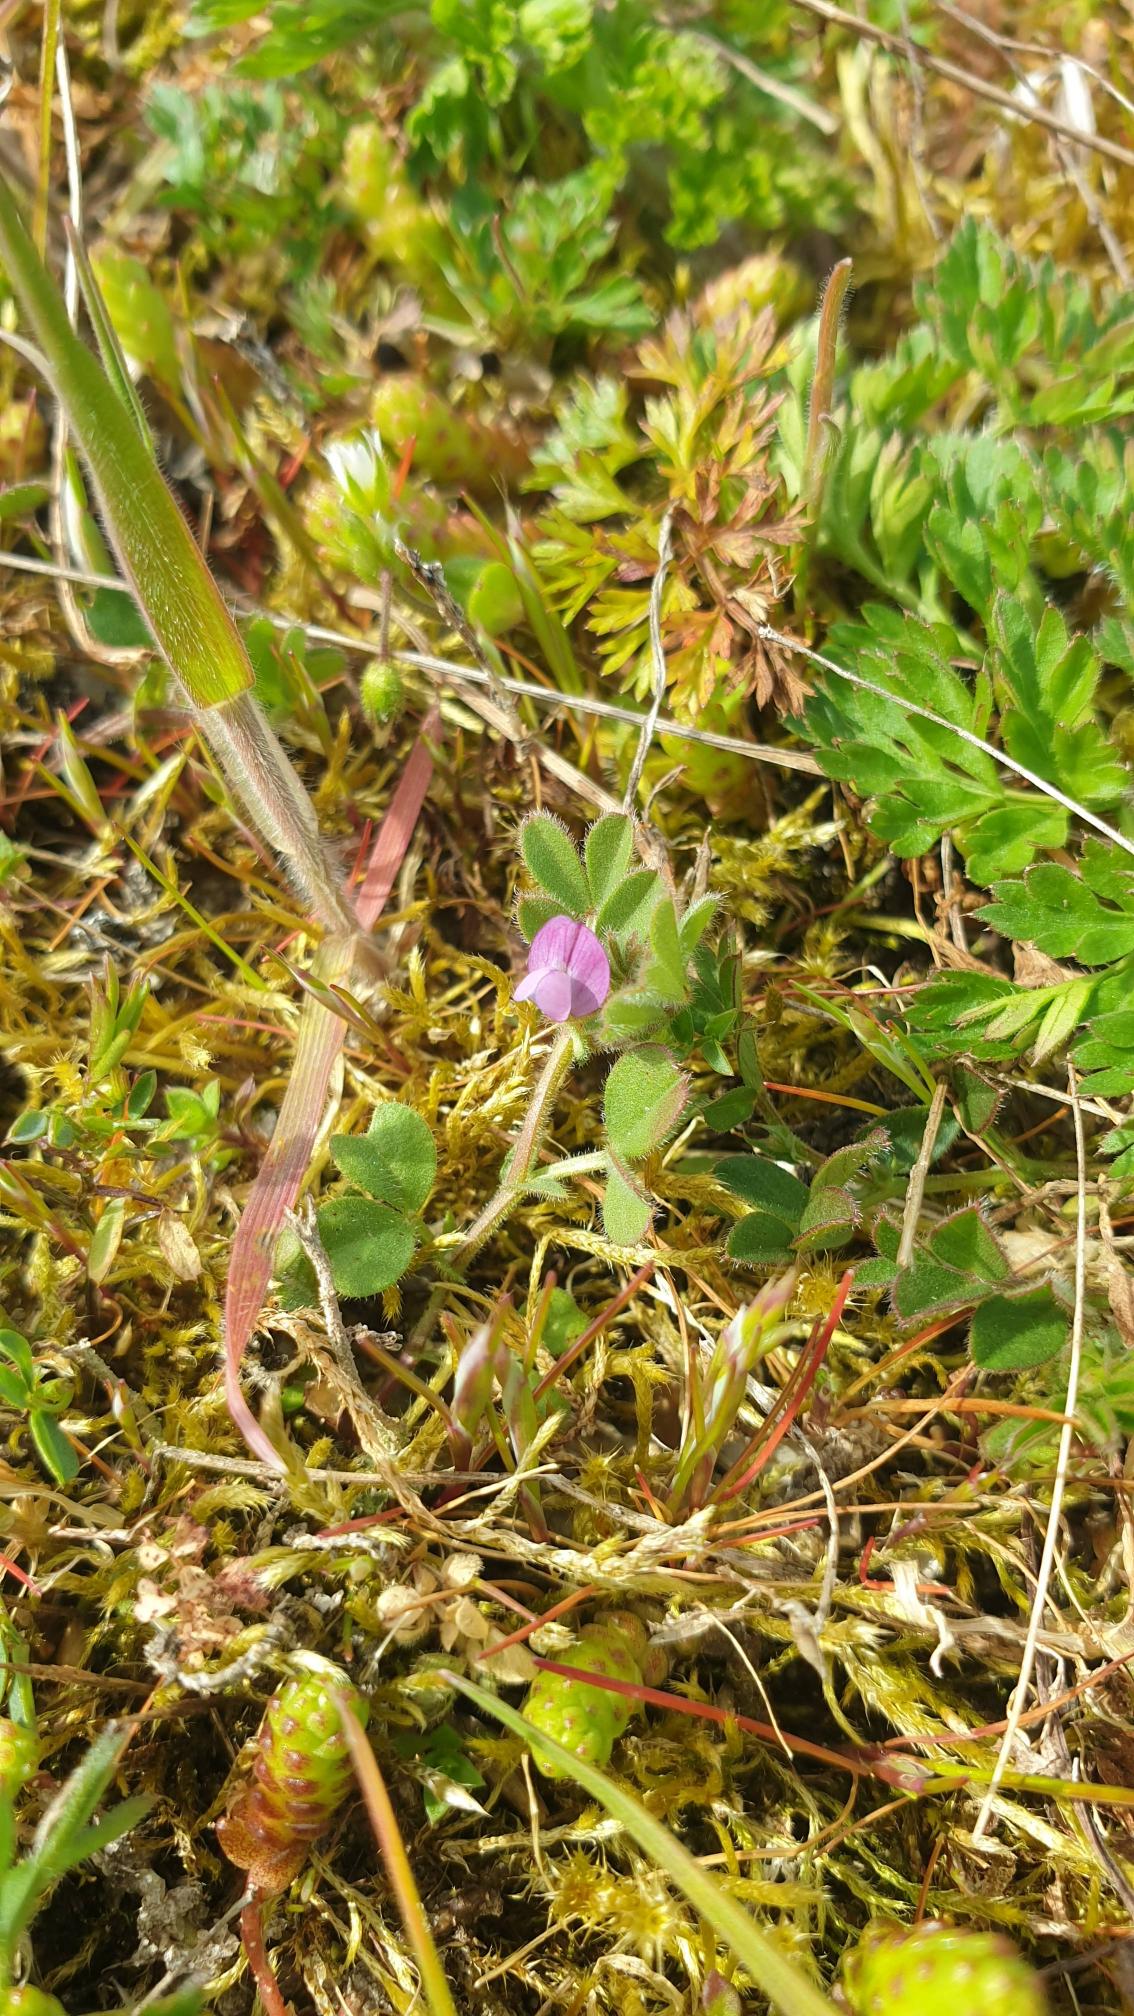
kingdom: Plantae
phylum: Tracheophyta
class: Magnoliopsida
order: Fabales
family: Fabaceae
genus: Vicia
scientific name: Vicia lathyroides
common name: Vår-vikke
